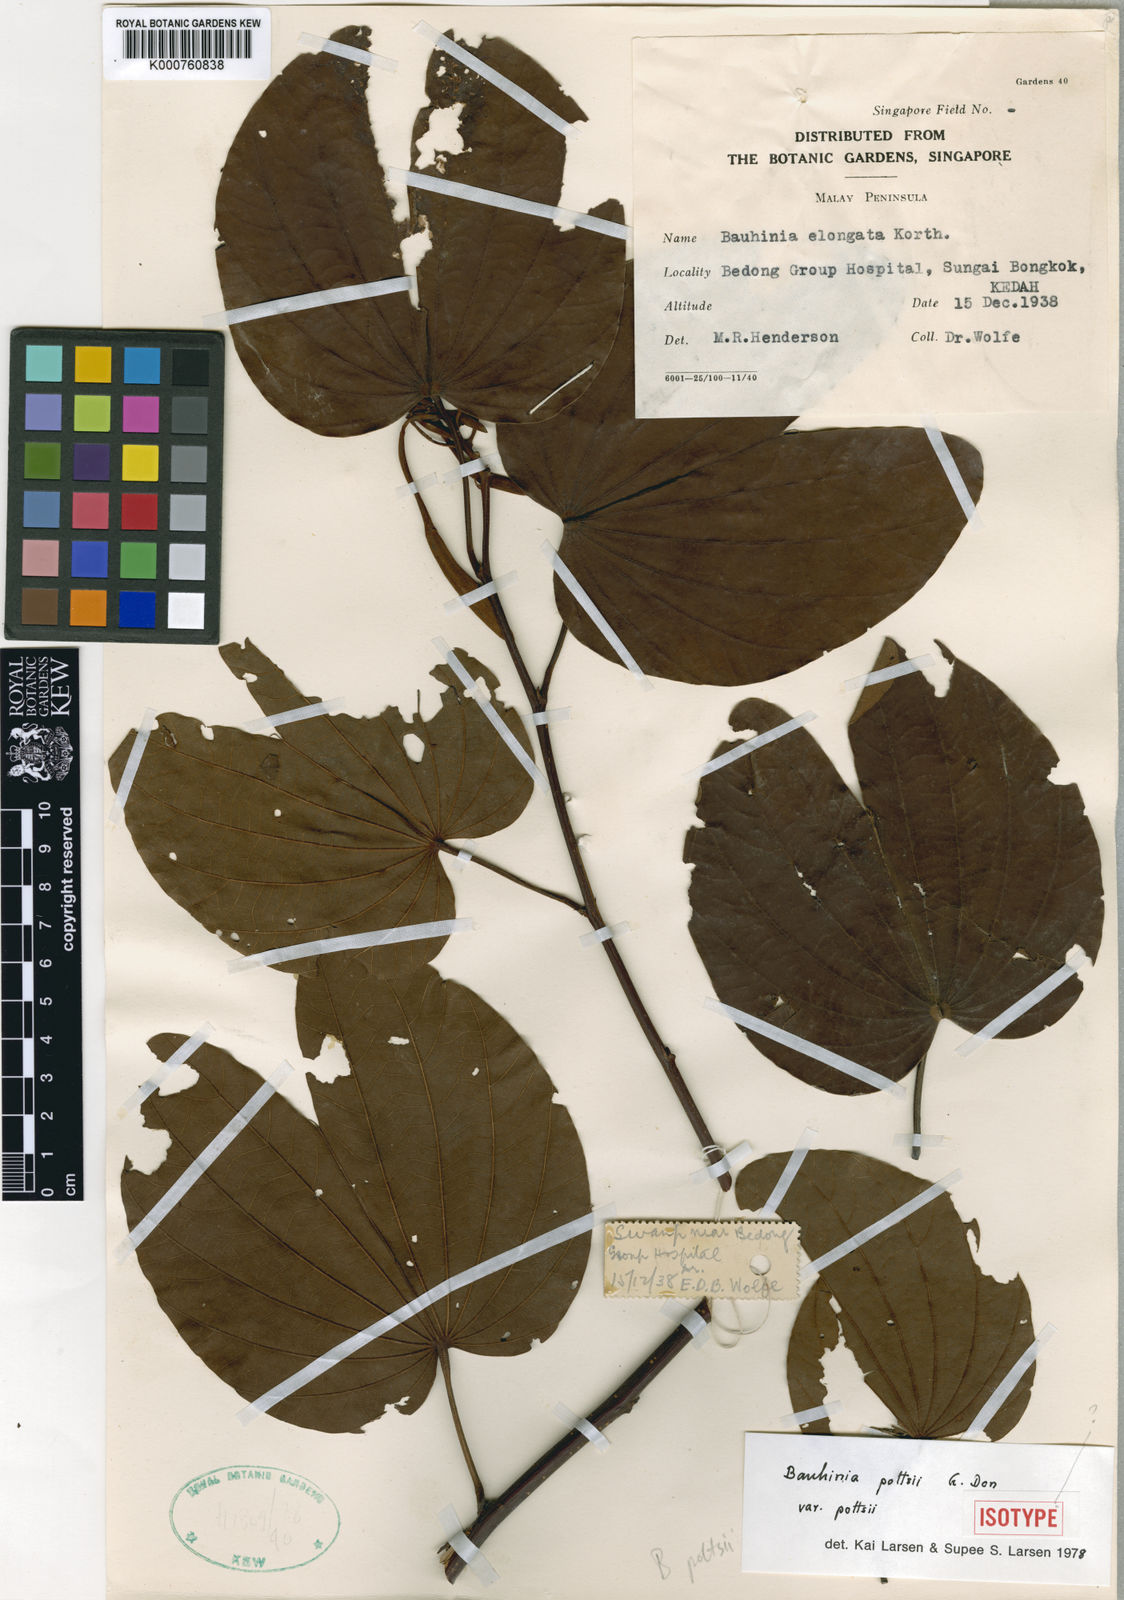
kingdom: Plantae
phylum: Tracheophyta
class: Magnoliopsida
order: Fabales
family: Fabaceae
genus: Bauhinia
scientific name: Bauhinia pottsii
